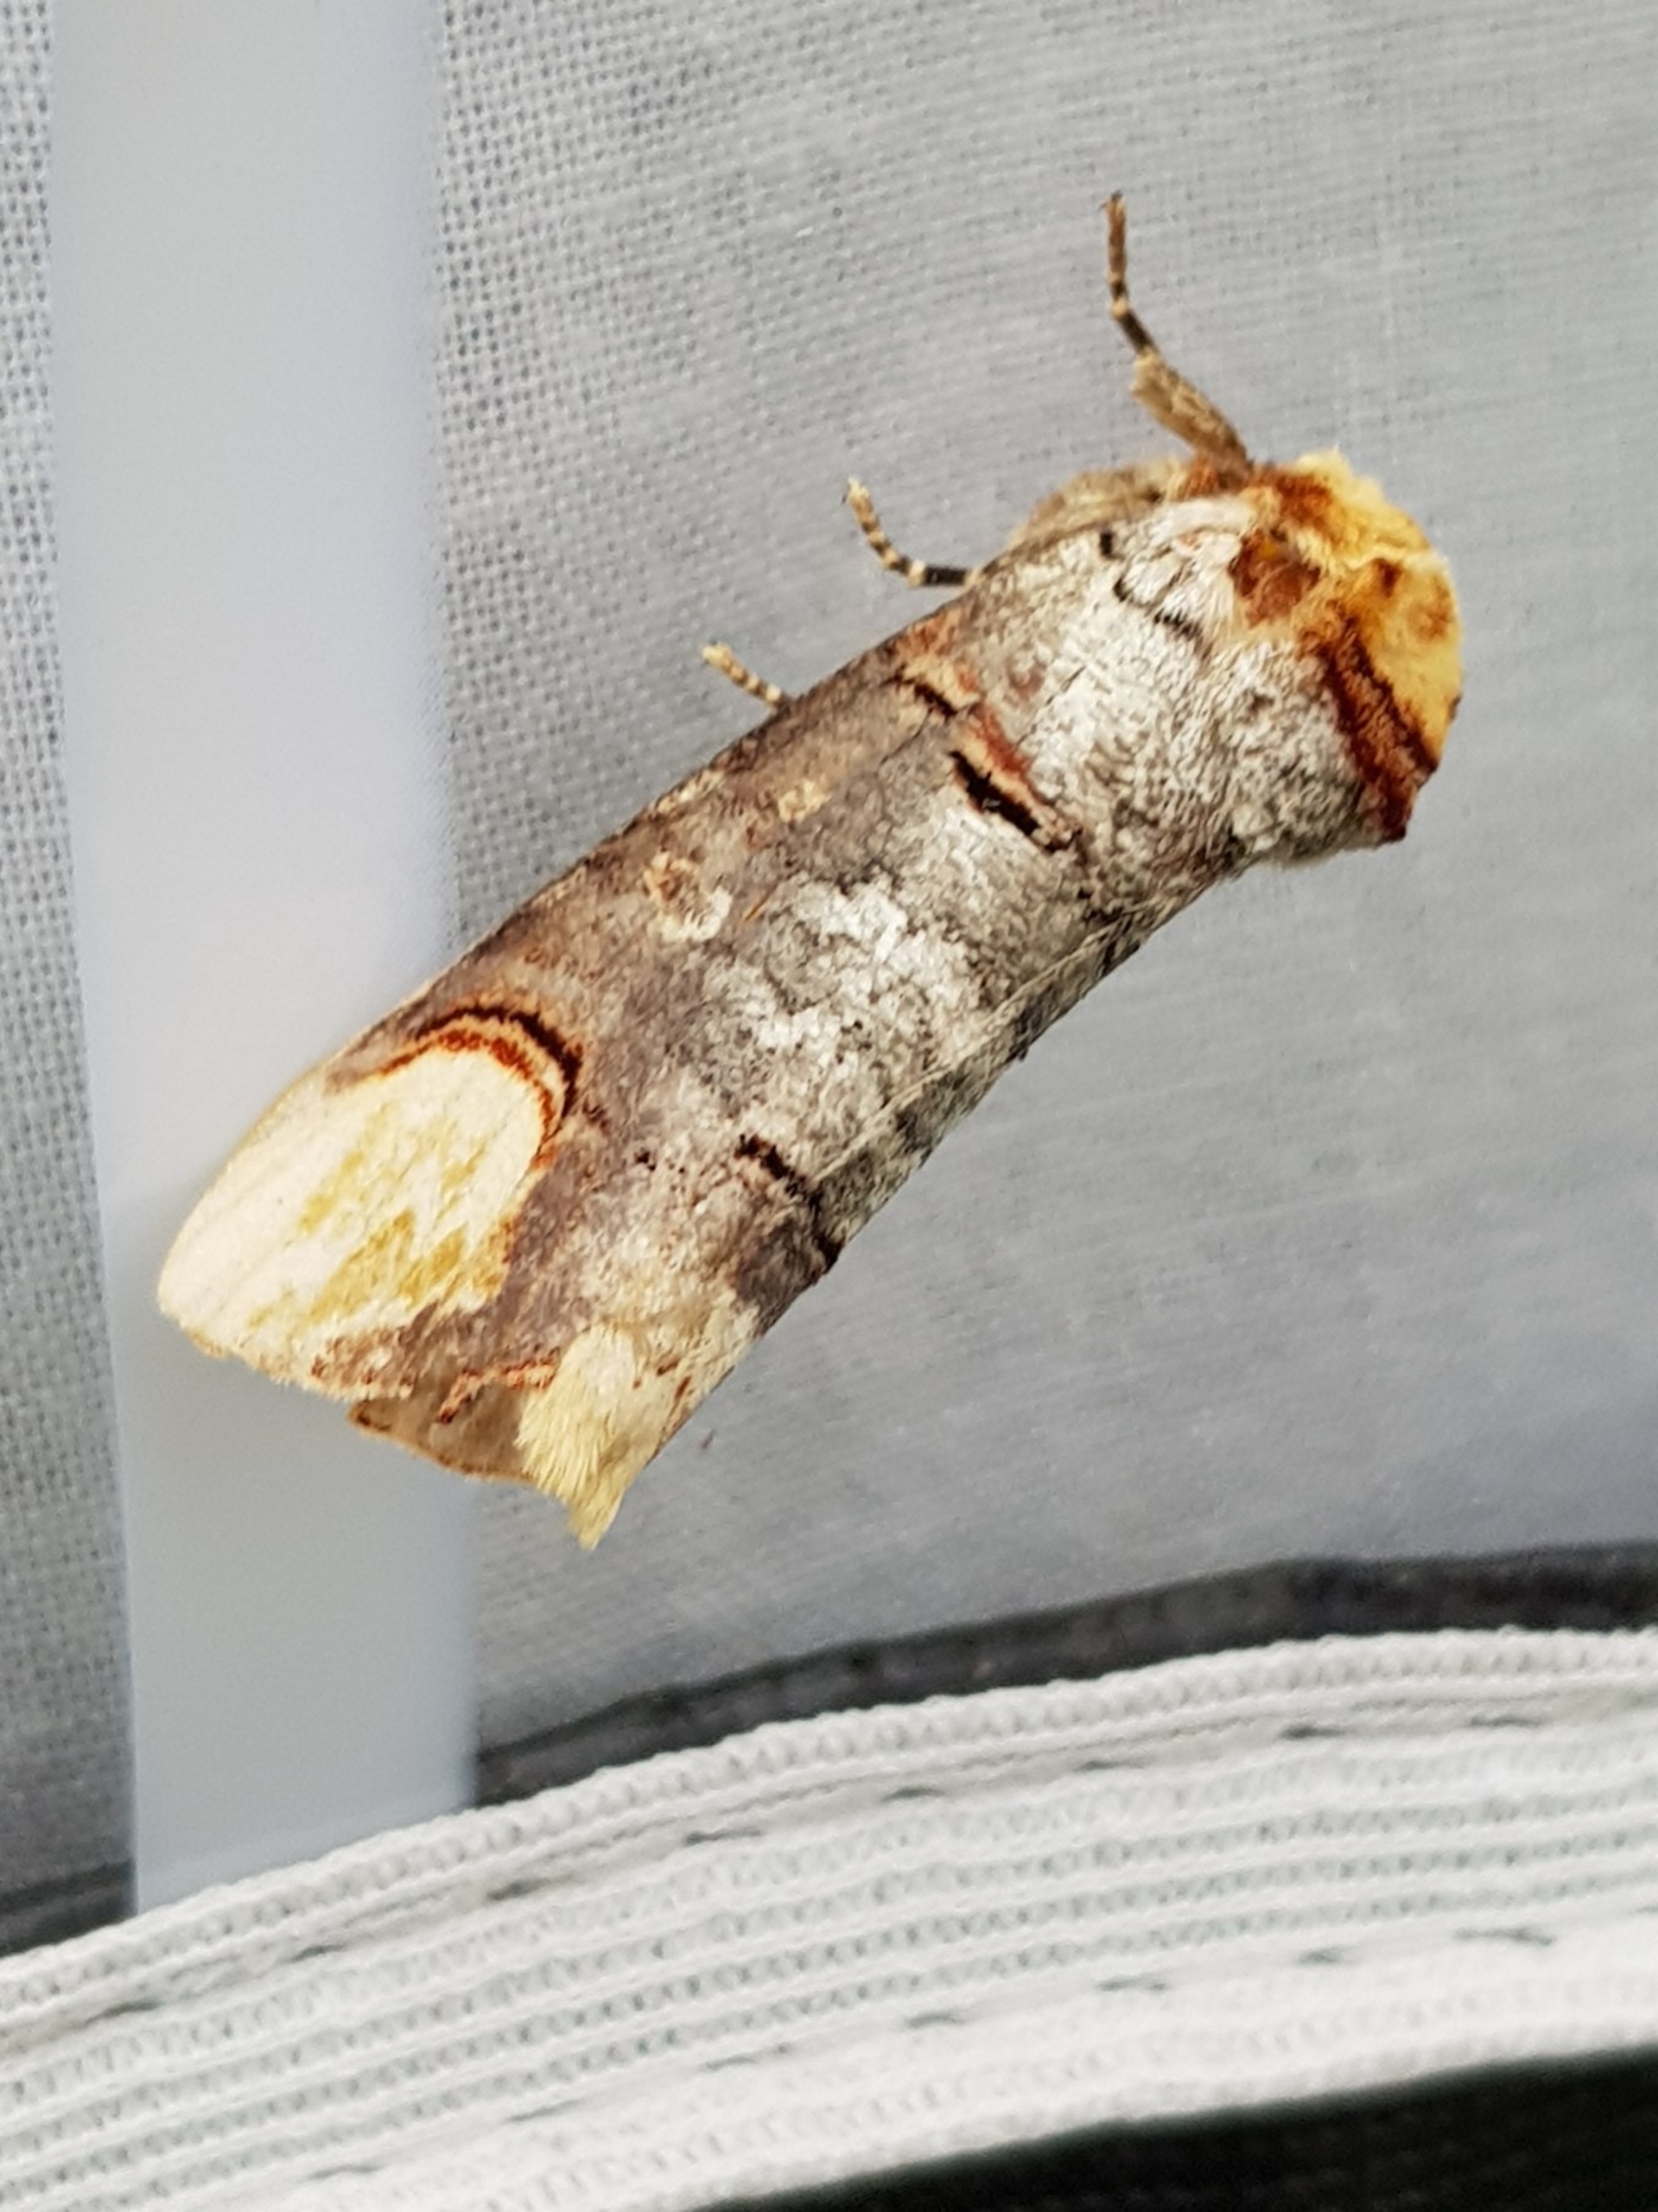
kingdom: Animalia
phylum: Arthropoda
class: Insecta
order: Lepidoptera
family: Notodontidae
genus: Phalera
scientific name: Phalera bucephala
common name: Måneplet
